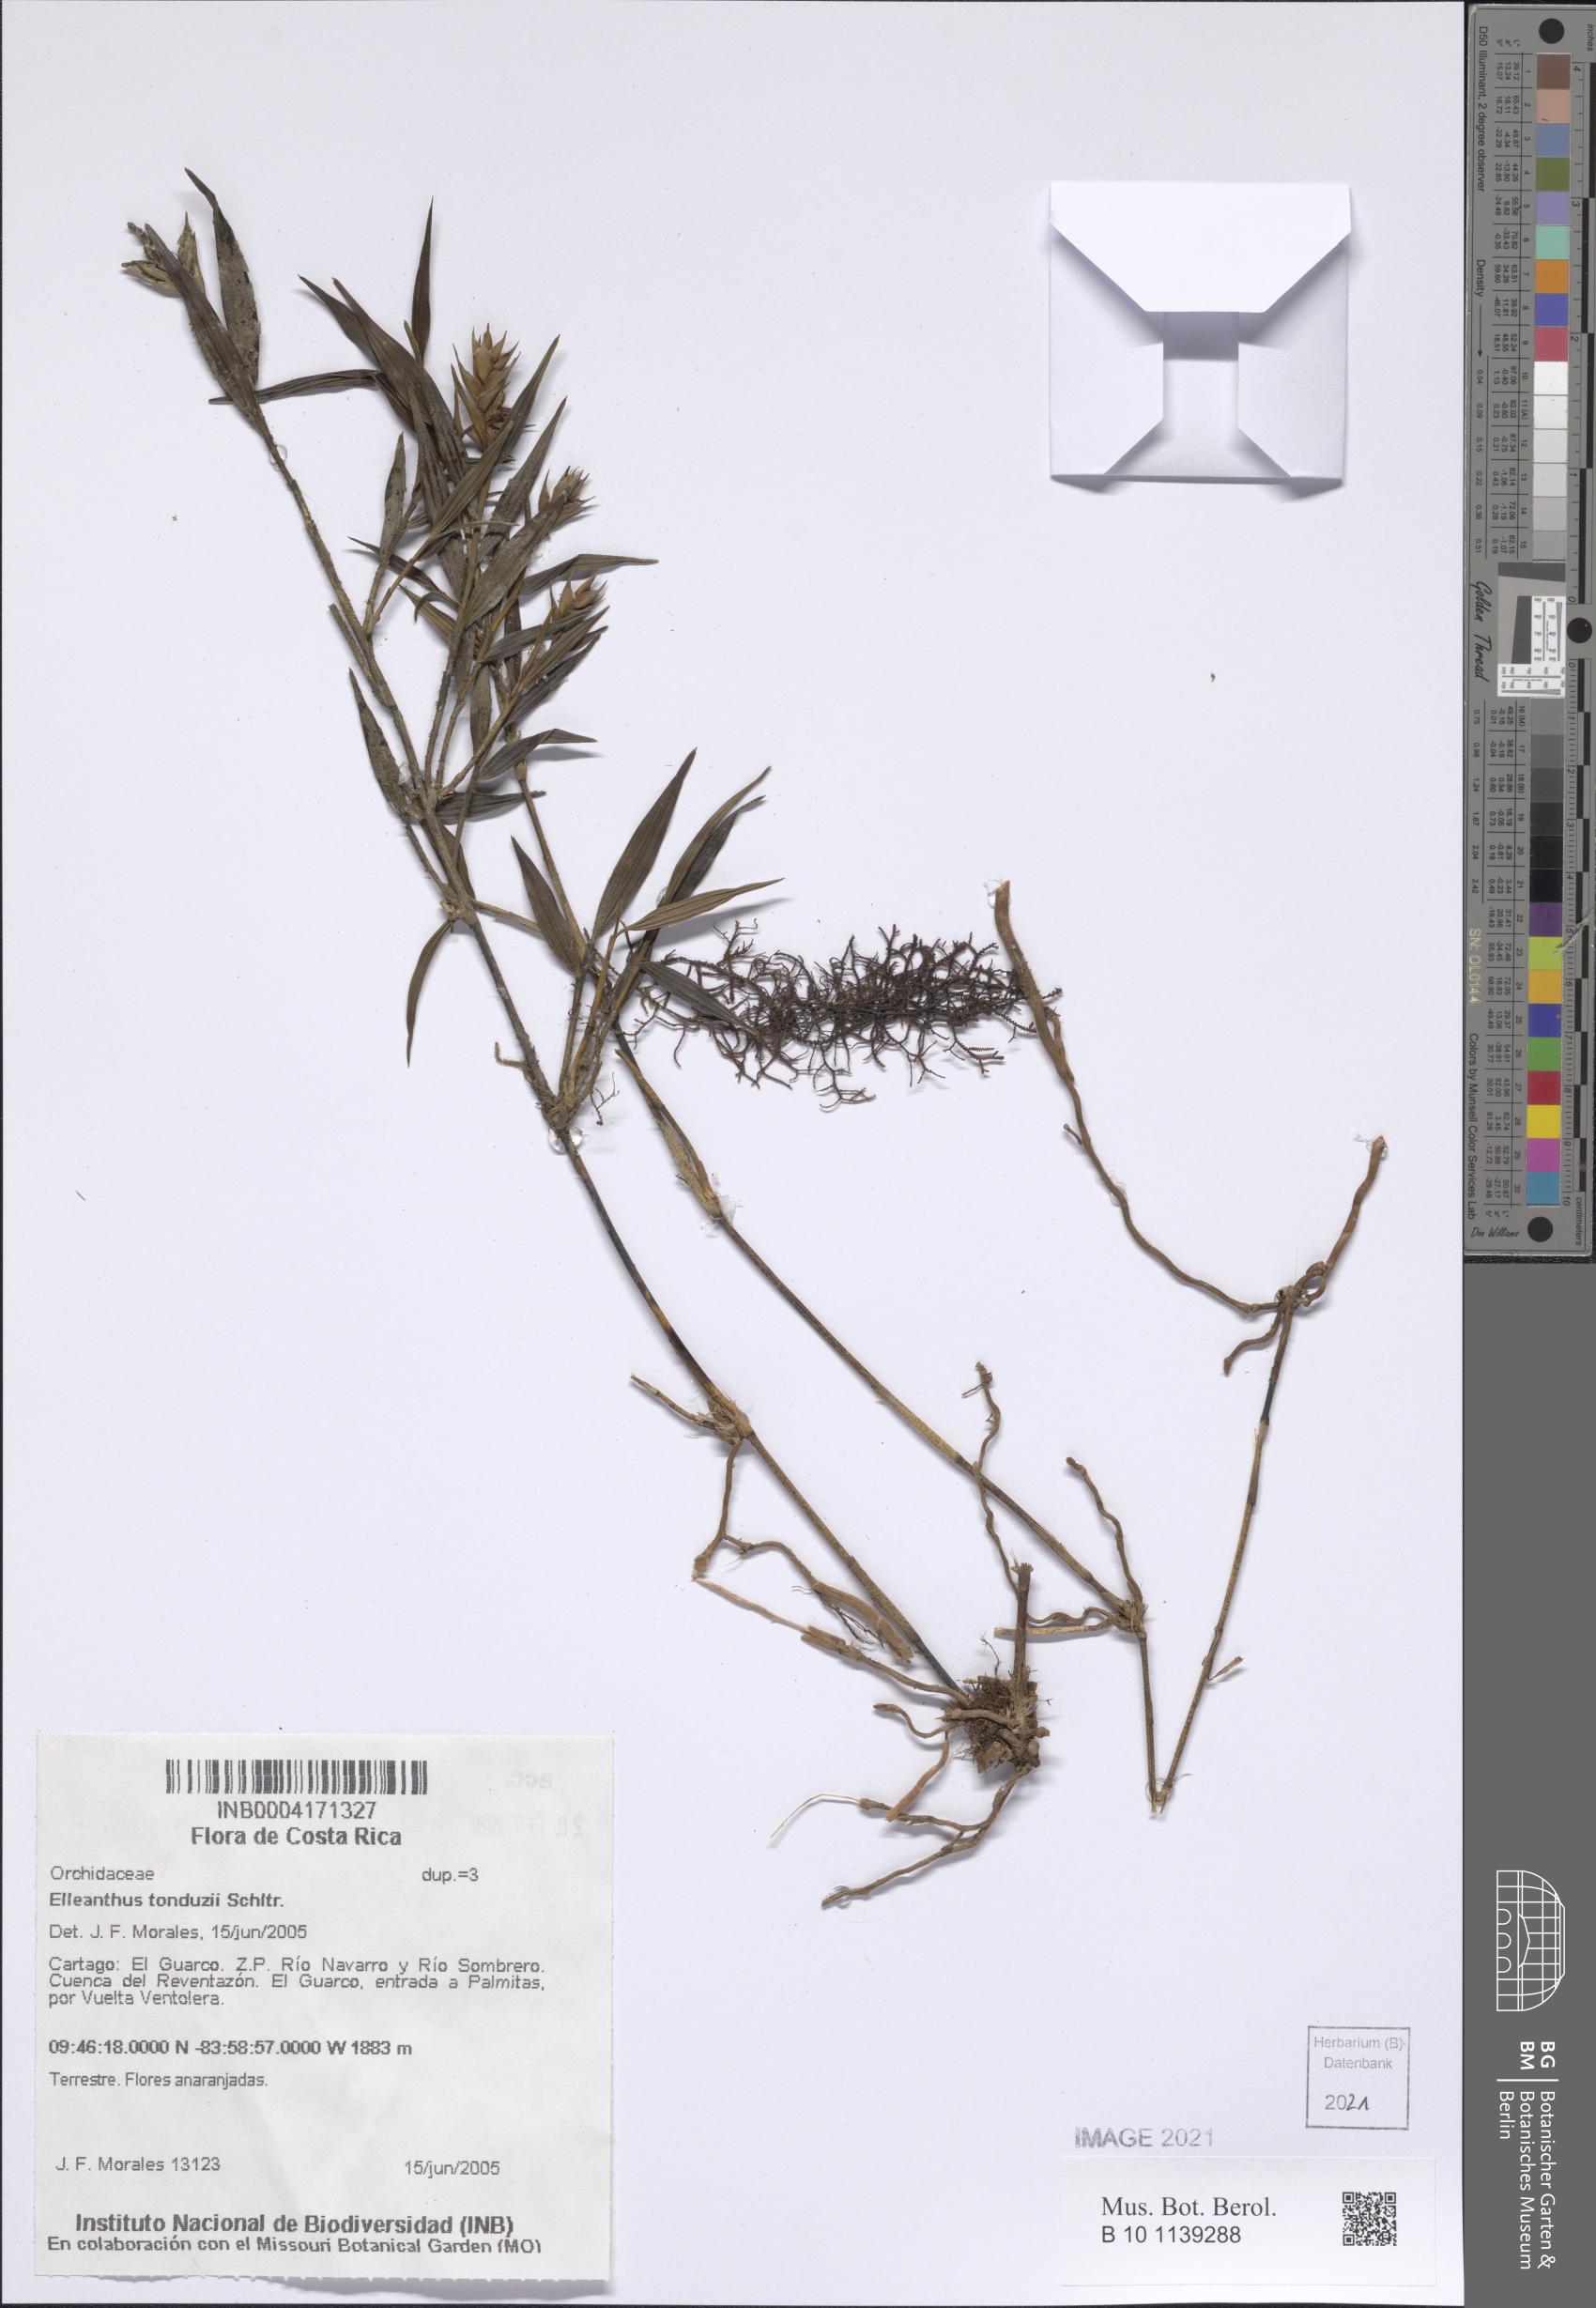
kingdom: Plantae
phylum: Tracheophyta
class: Liliopsida
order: Asparagales
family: Orchidaceae
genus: Elleanthus
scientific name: Elleanthus tonduzii
